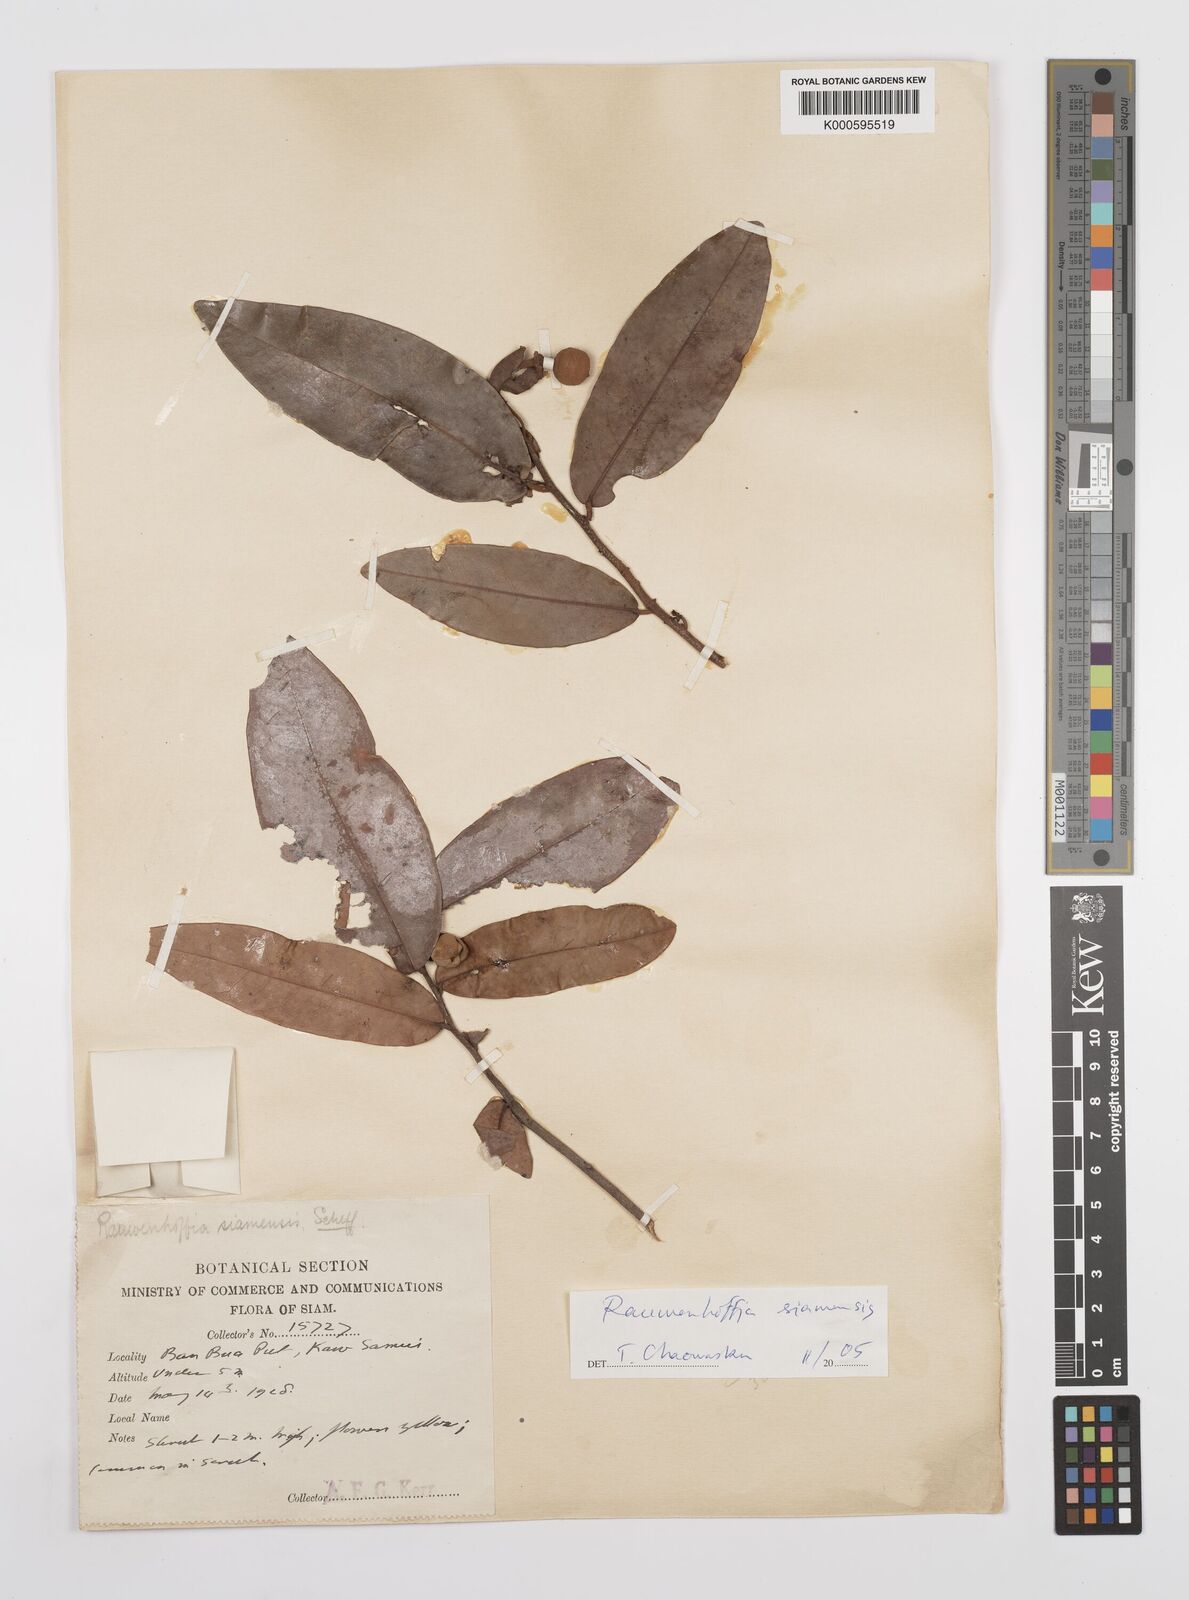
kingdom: Plantae
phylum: Tracheophyta
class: Magnoliopsida
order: Magnoliales
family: Annonaceae
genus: Melodorum
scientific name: Melodorum fruticosum
